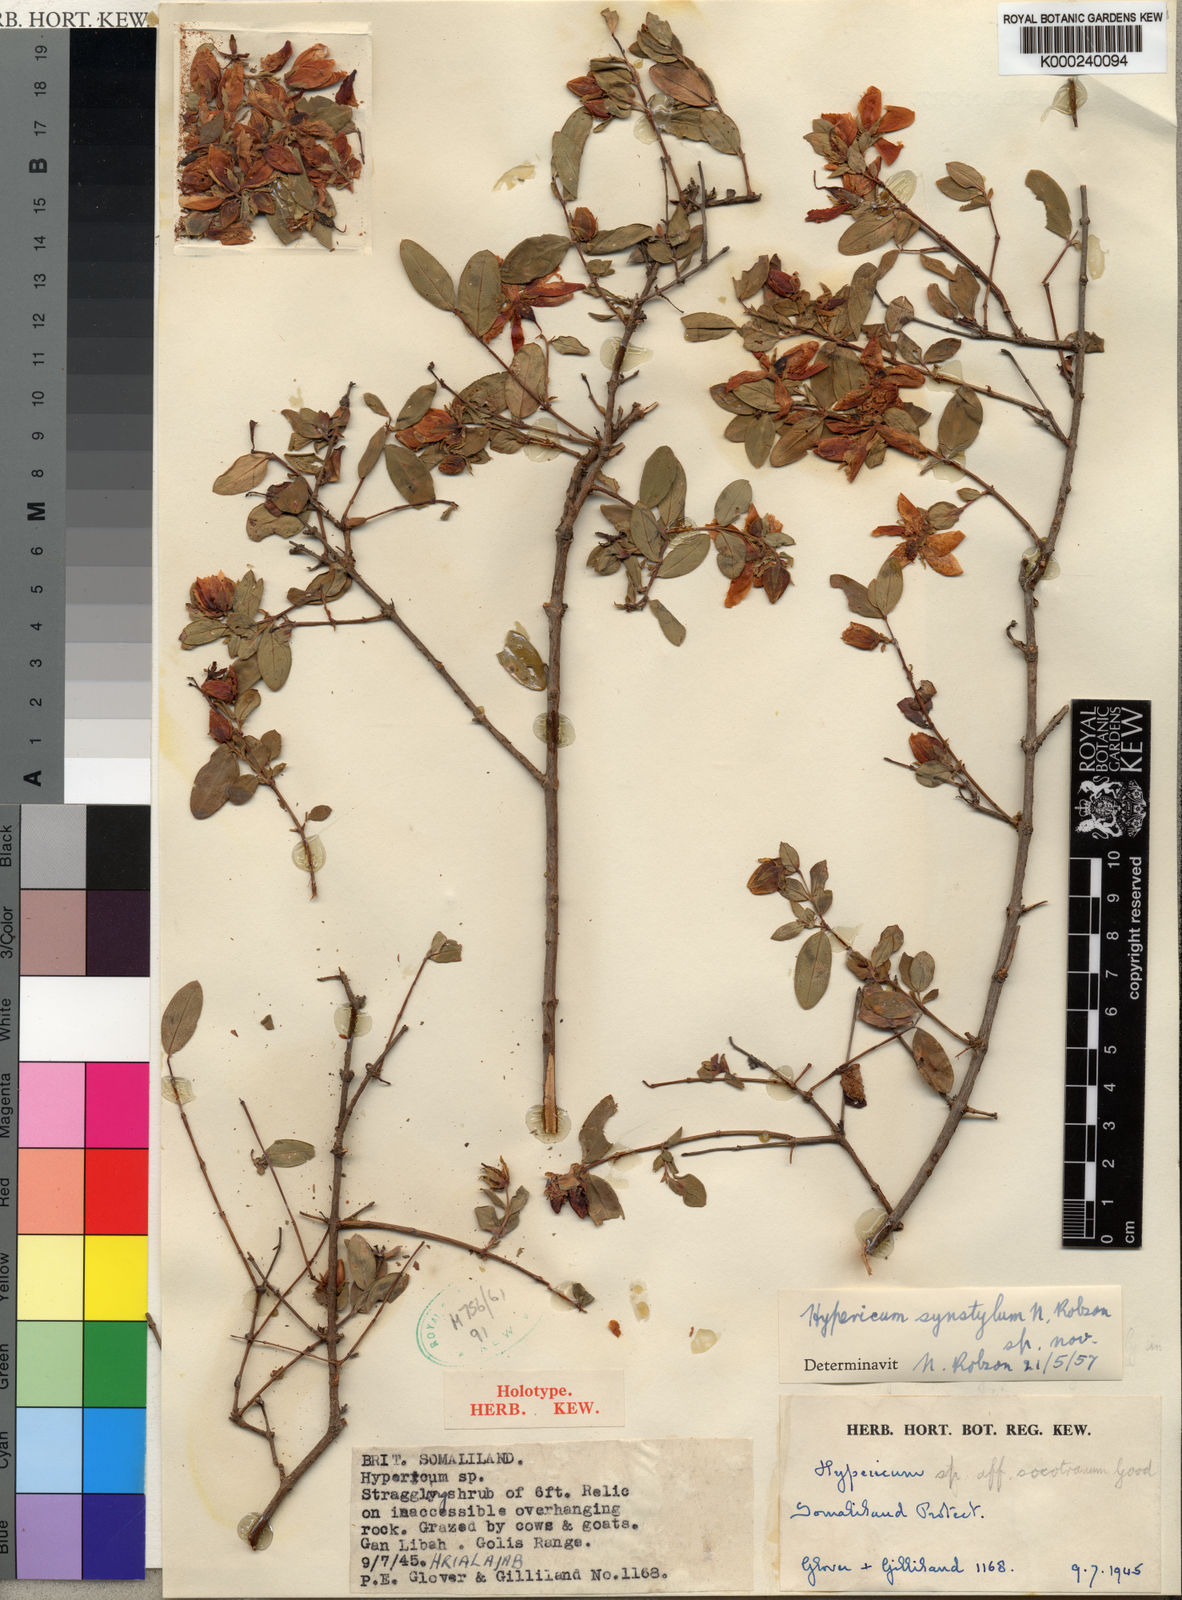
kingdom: Plantae
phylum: Tracheophyta
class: Magnoliopsida
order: Malpighiales
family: Hypericaceae
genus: Hypericum
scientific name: Hypericum synstylum
